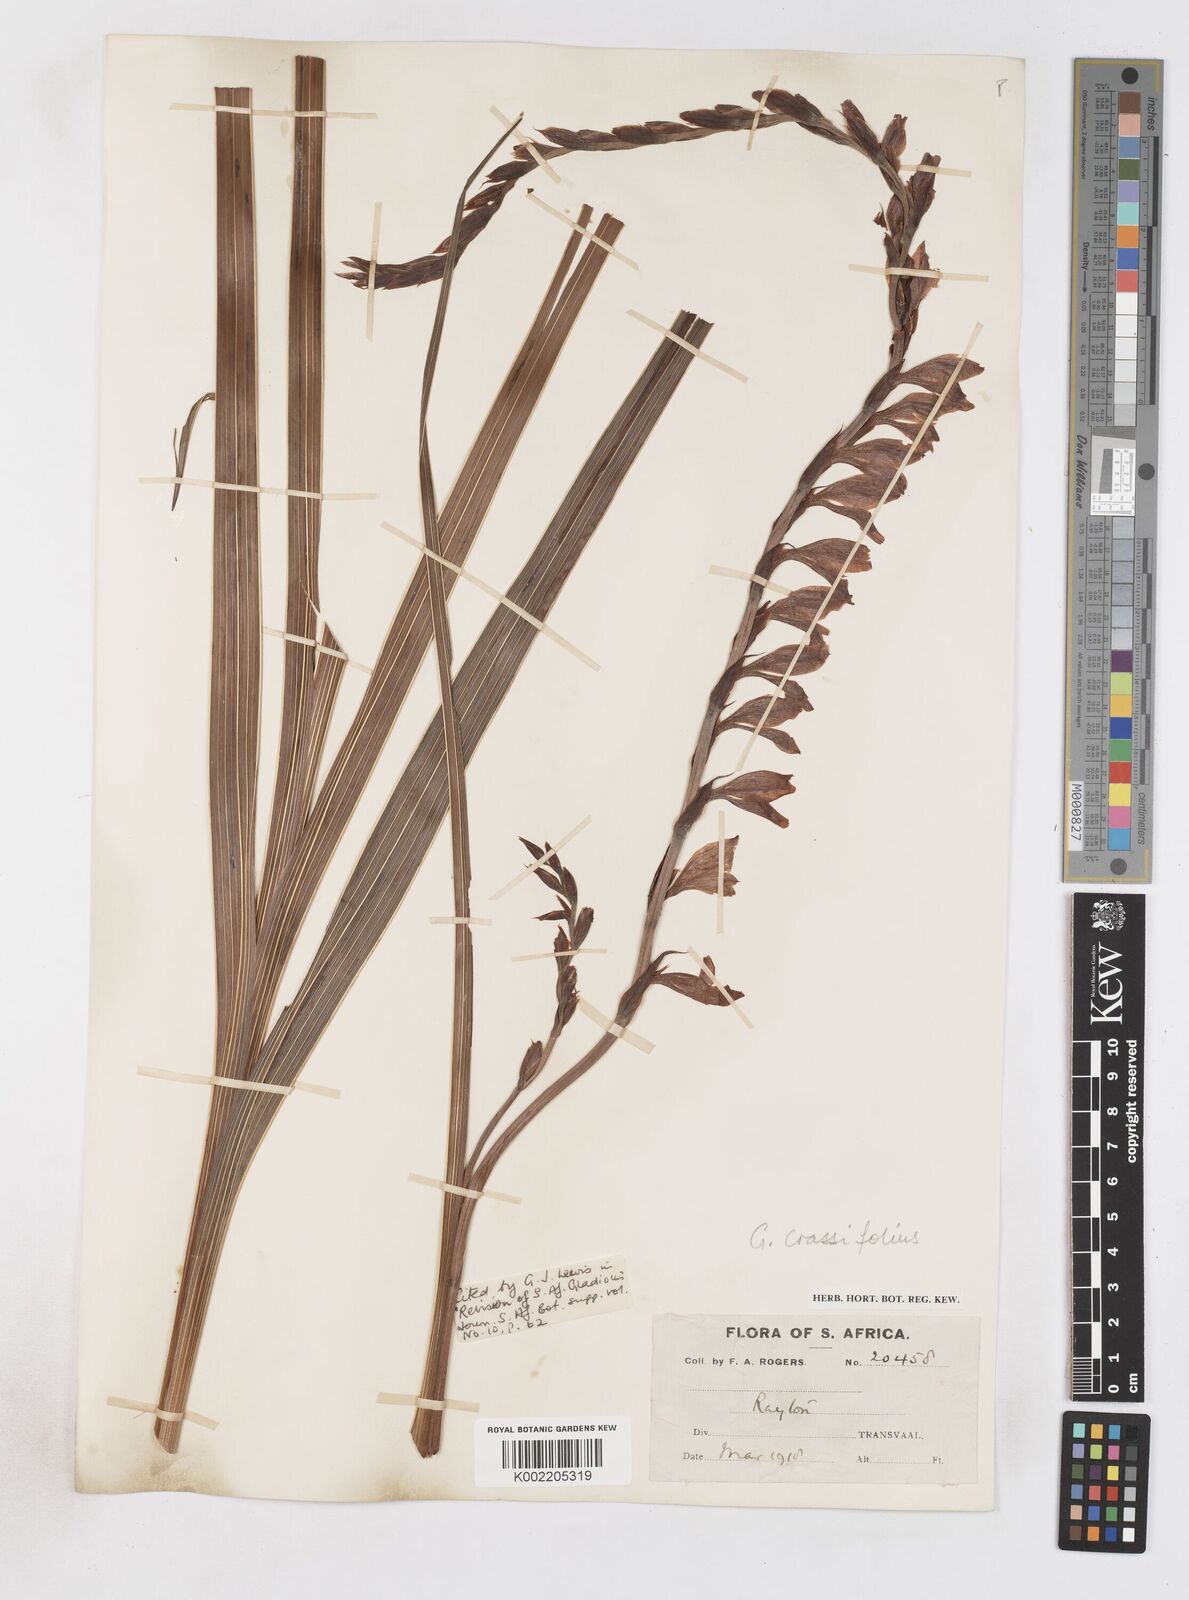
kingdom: Plantae
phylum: Tracheophyta
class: Liliopsida
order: Asparagales
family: Iridaceae
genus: Gladiolus
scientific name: Gladiolus crassifolius
